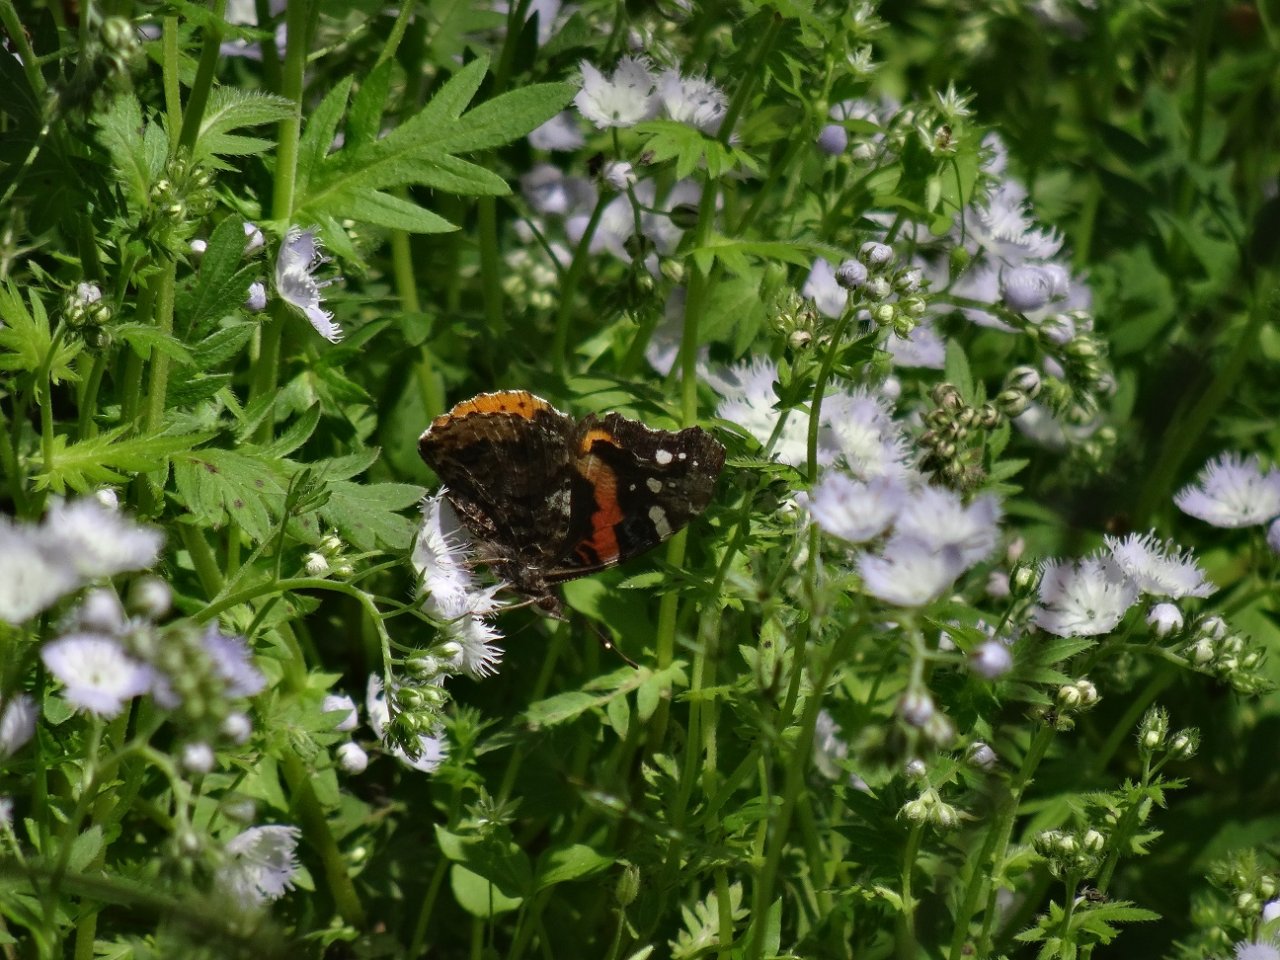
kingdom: Animalia
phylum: Arthropoda
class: Insecta
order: Lepidoptera
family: Nymphalidae
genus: Vanessa
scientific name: Vanessa atalanta
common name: Red Admiral
